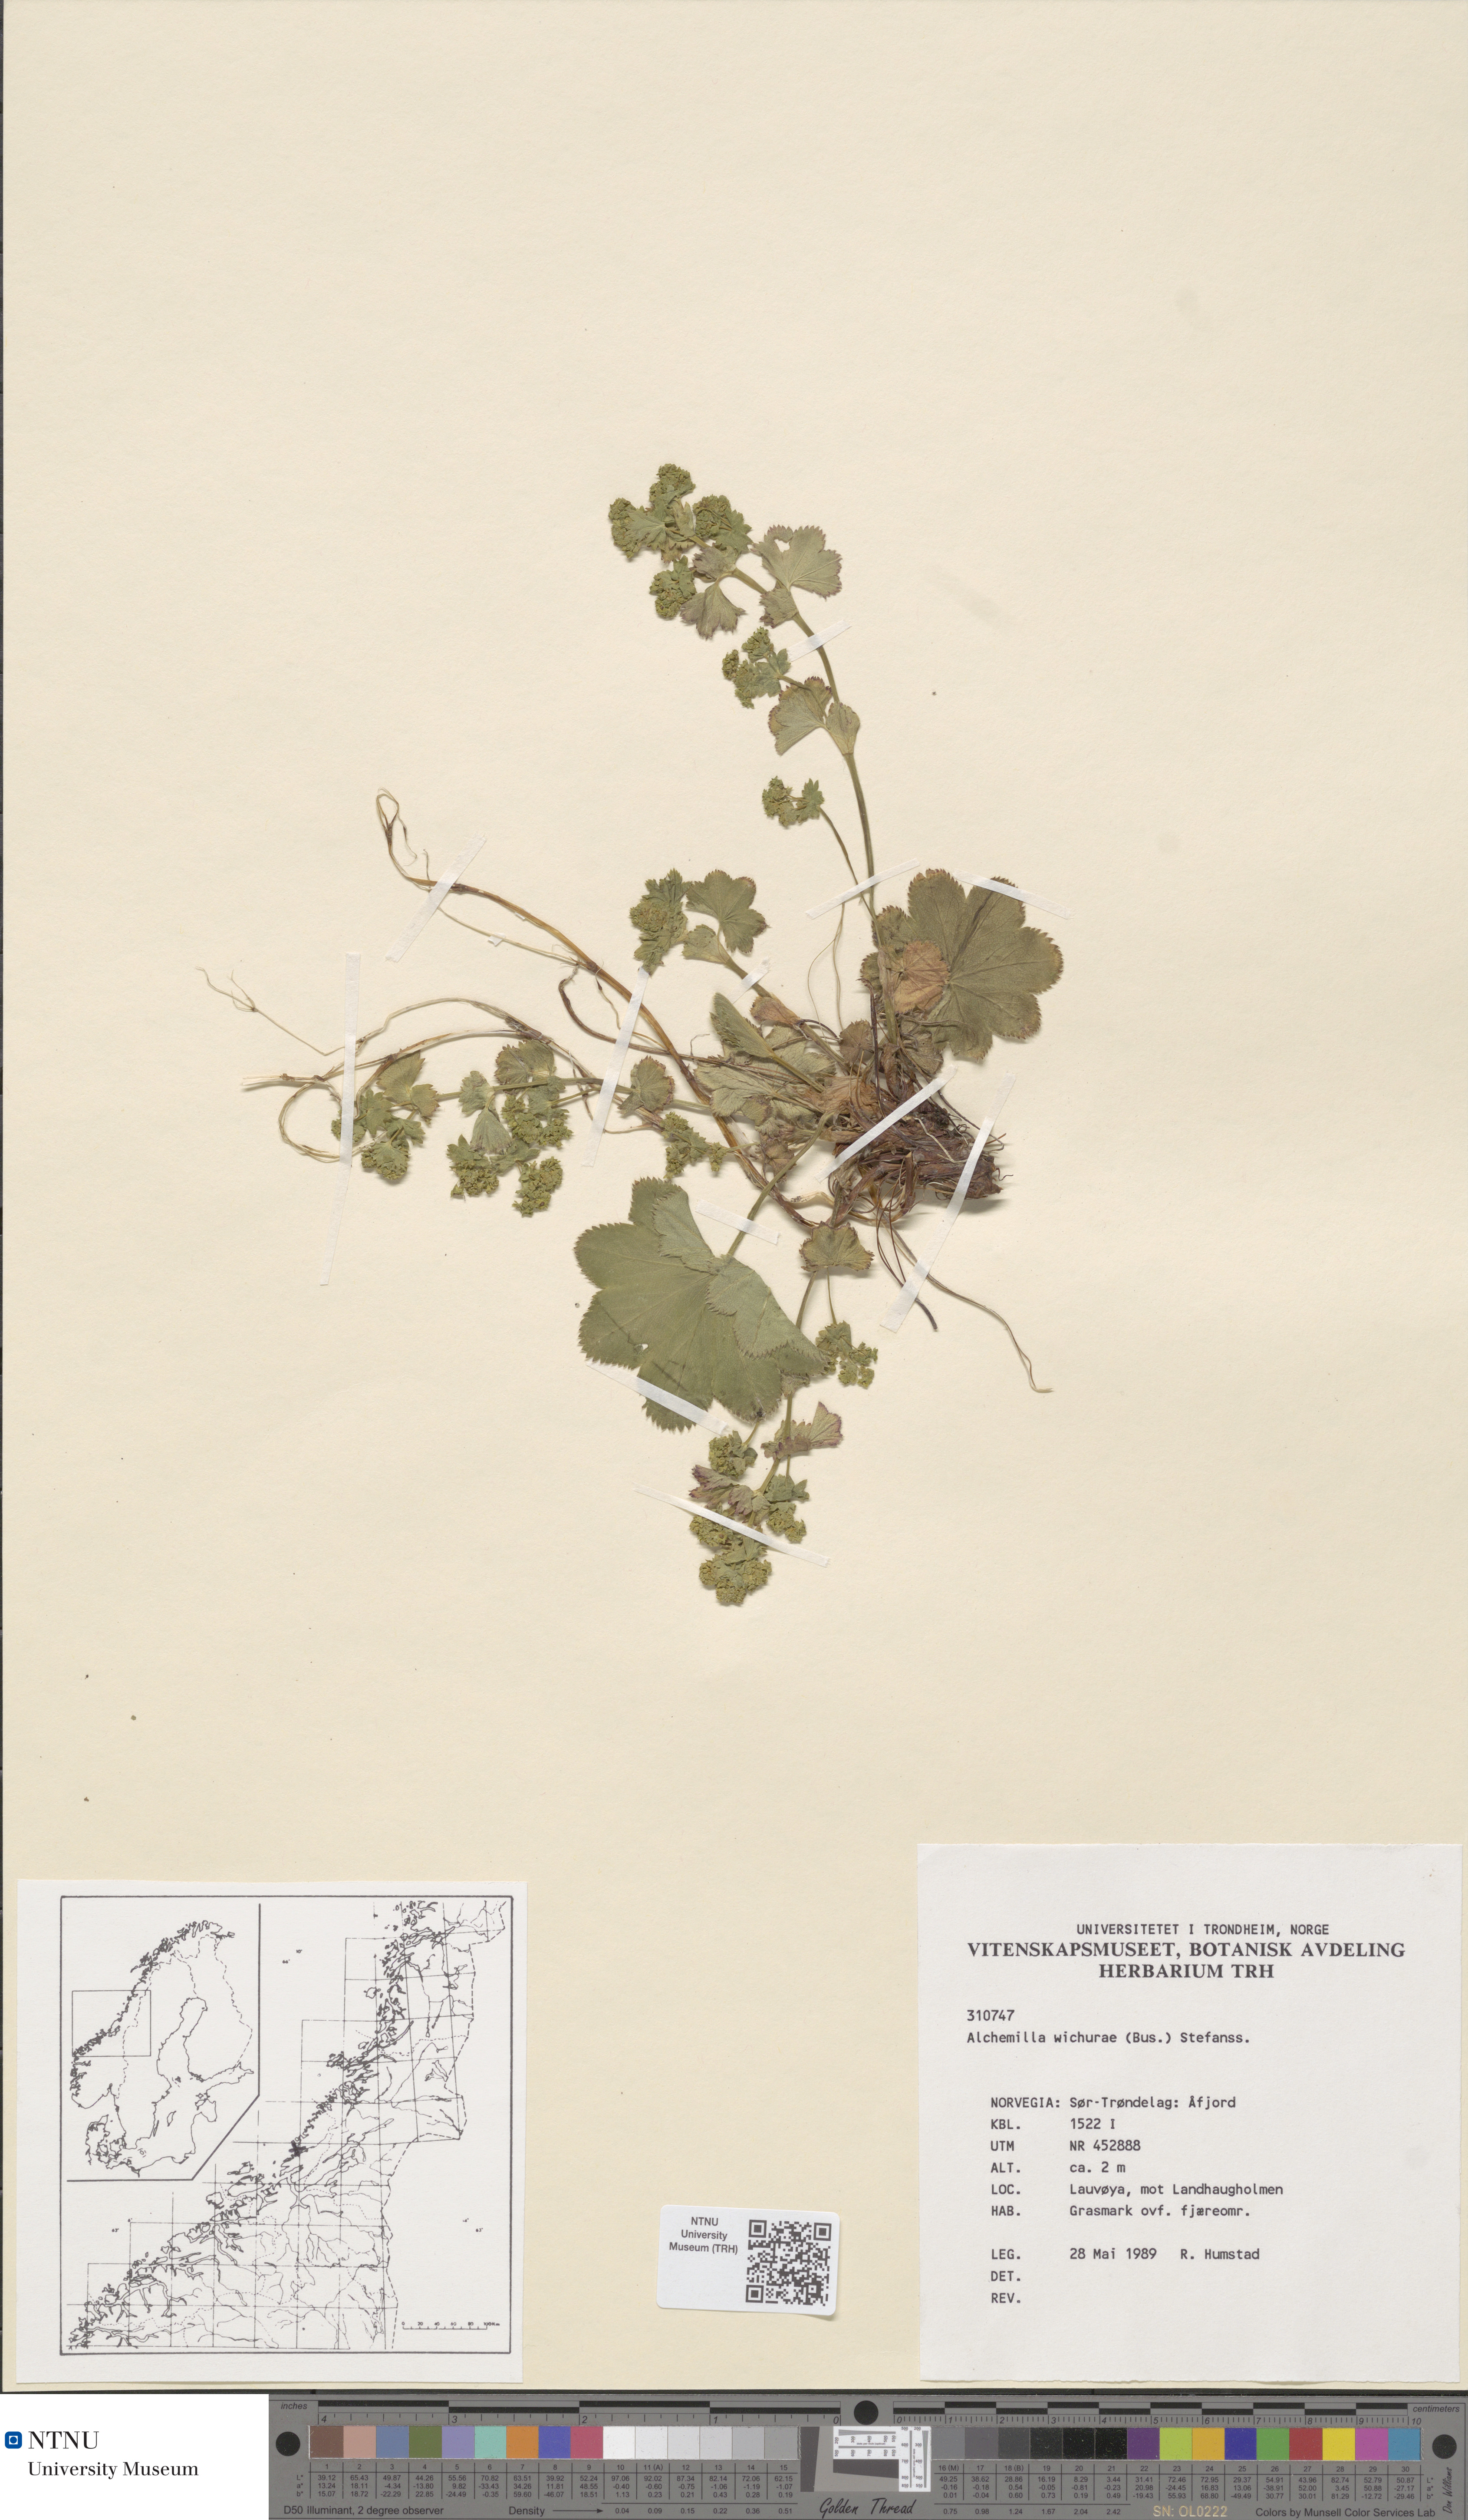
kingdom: Plantae
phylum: Tracheophyta
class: Magnoliopsida
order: Rosales
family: Rosaceae
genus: Alchemilla
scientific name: Alchemilla wichurae
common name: Rock lady's mantle
